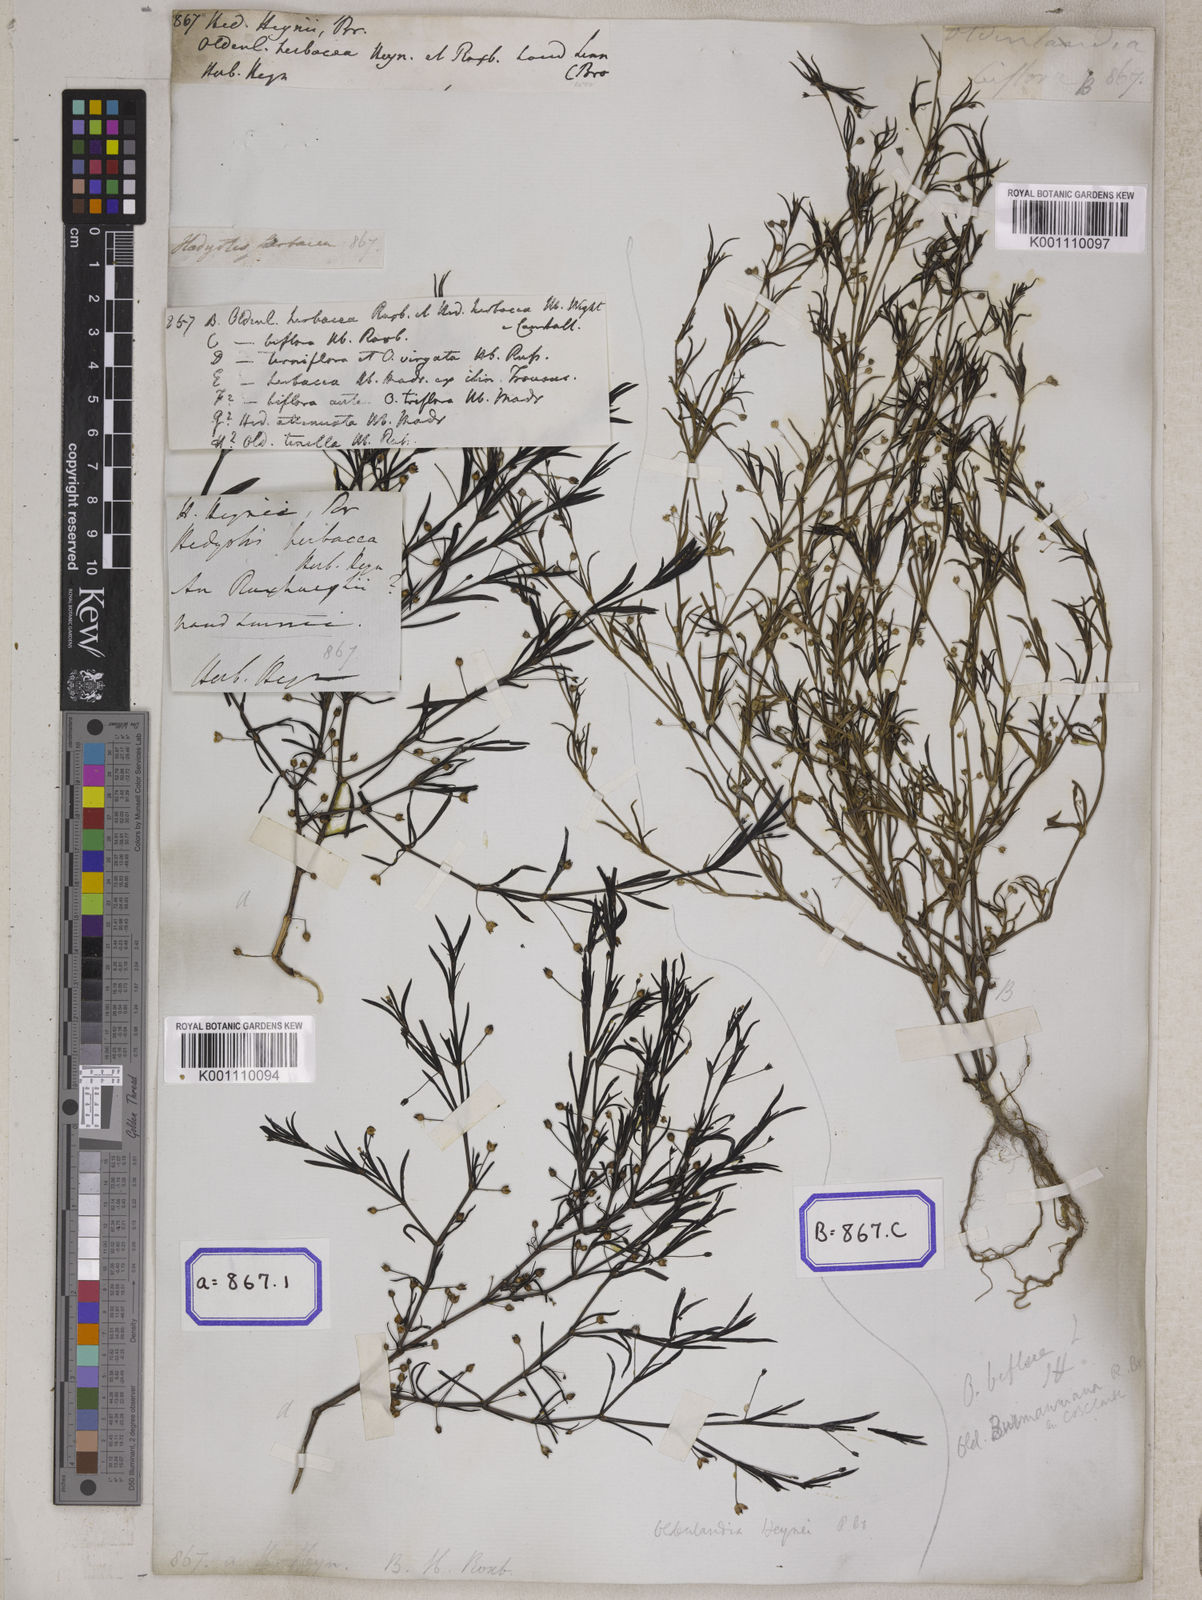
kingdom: Plantae
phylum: Tracheophyta
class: Magnoliopsida
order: Gentianales
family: Rubiaceae
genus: Hedyotis
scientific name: Hedyotis
